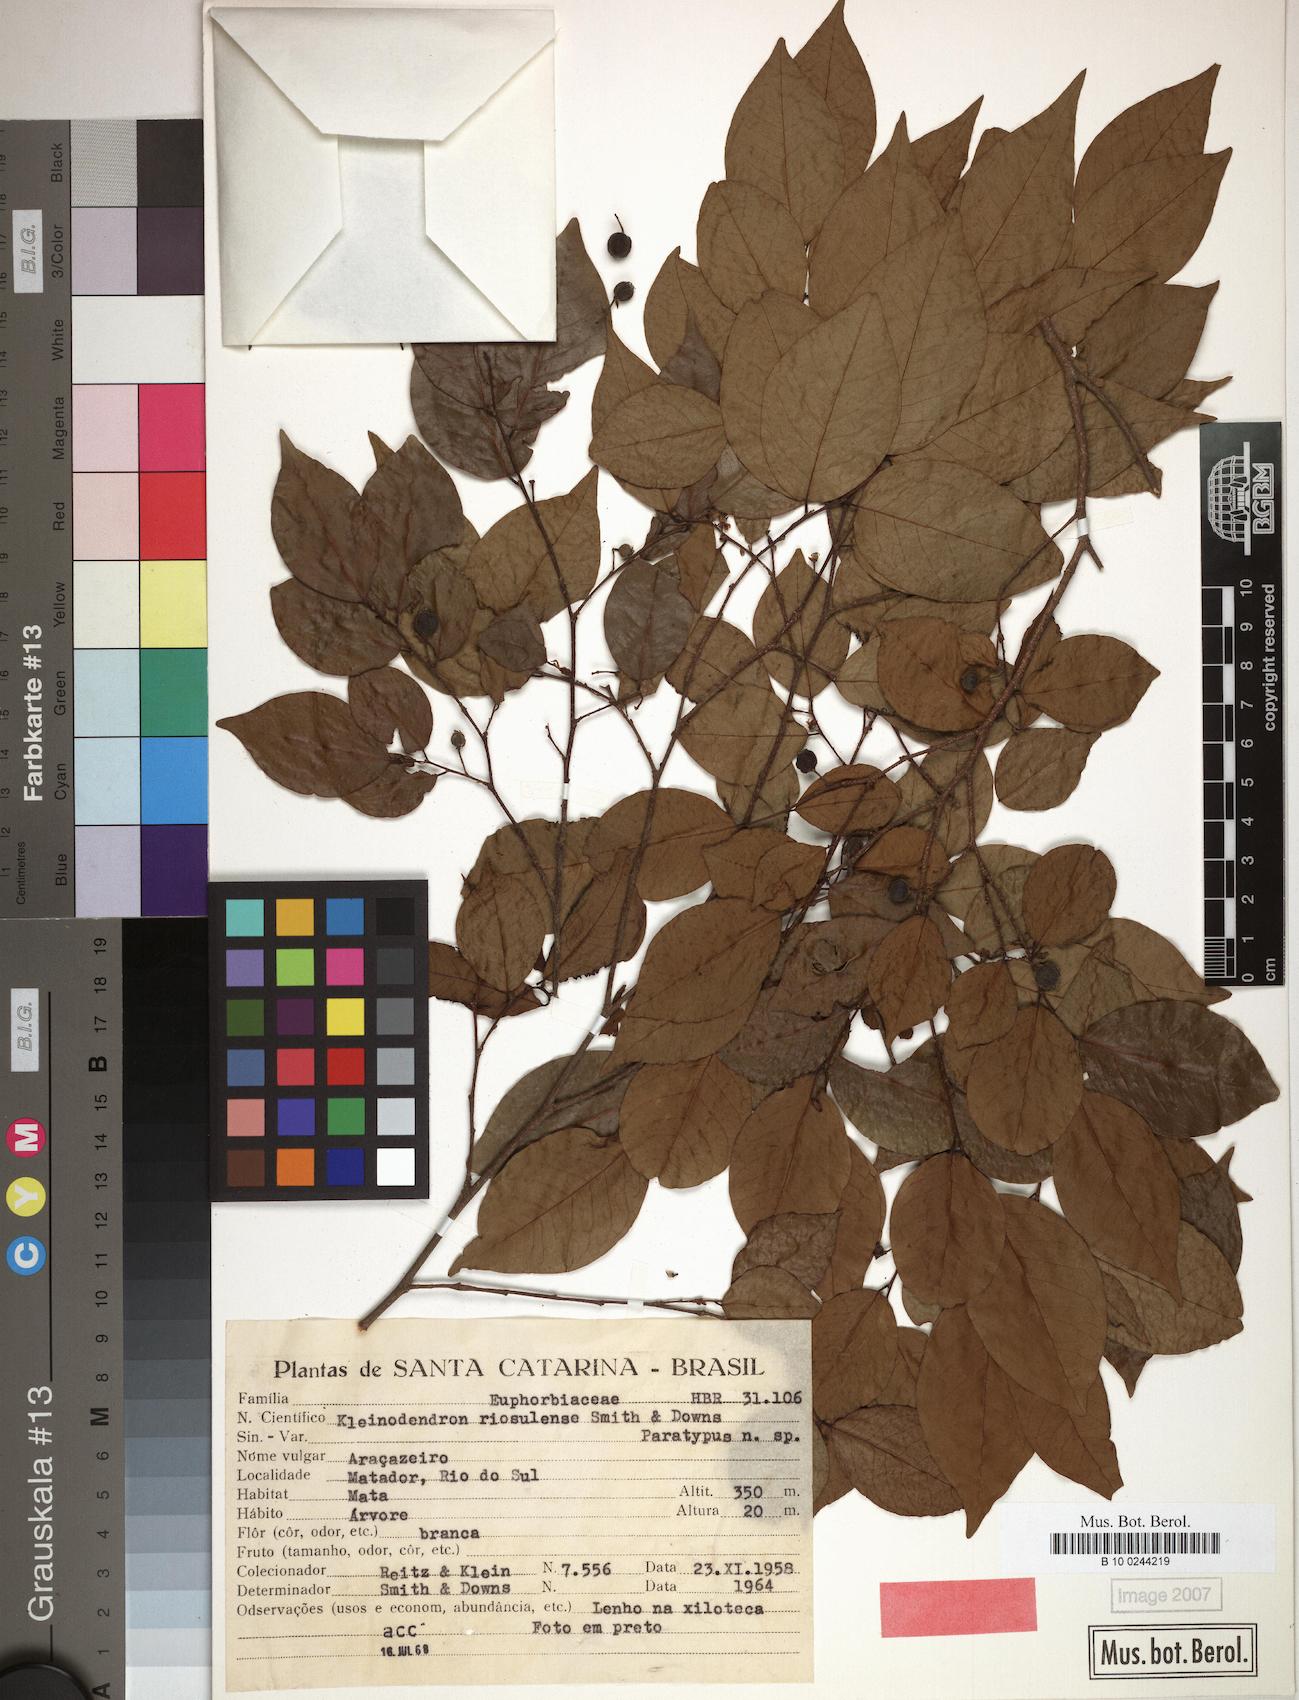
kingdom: Plantae
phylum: Tracheophyta
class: Magnoliopsida
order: Malpighiales
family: Phyllanthaceae
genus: Savia
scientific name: Savia dictyocarpa
